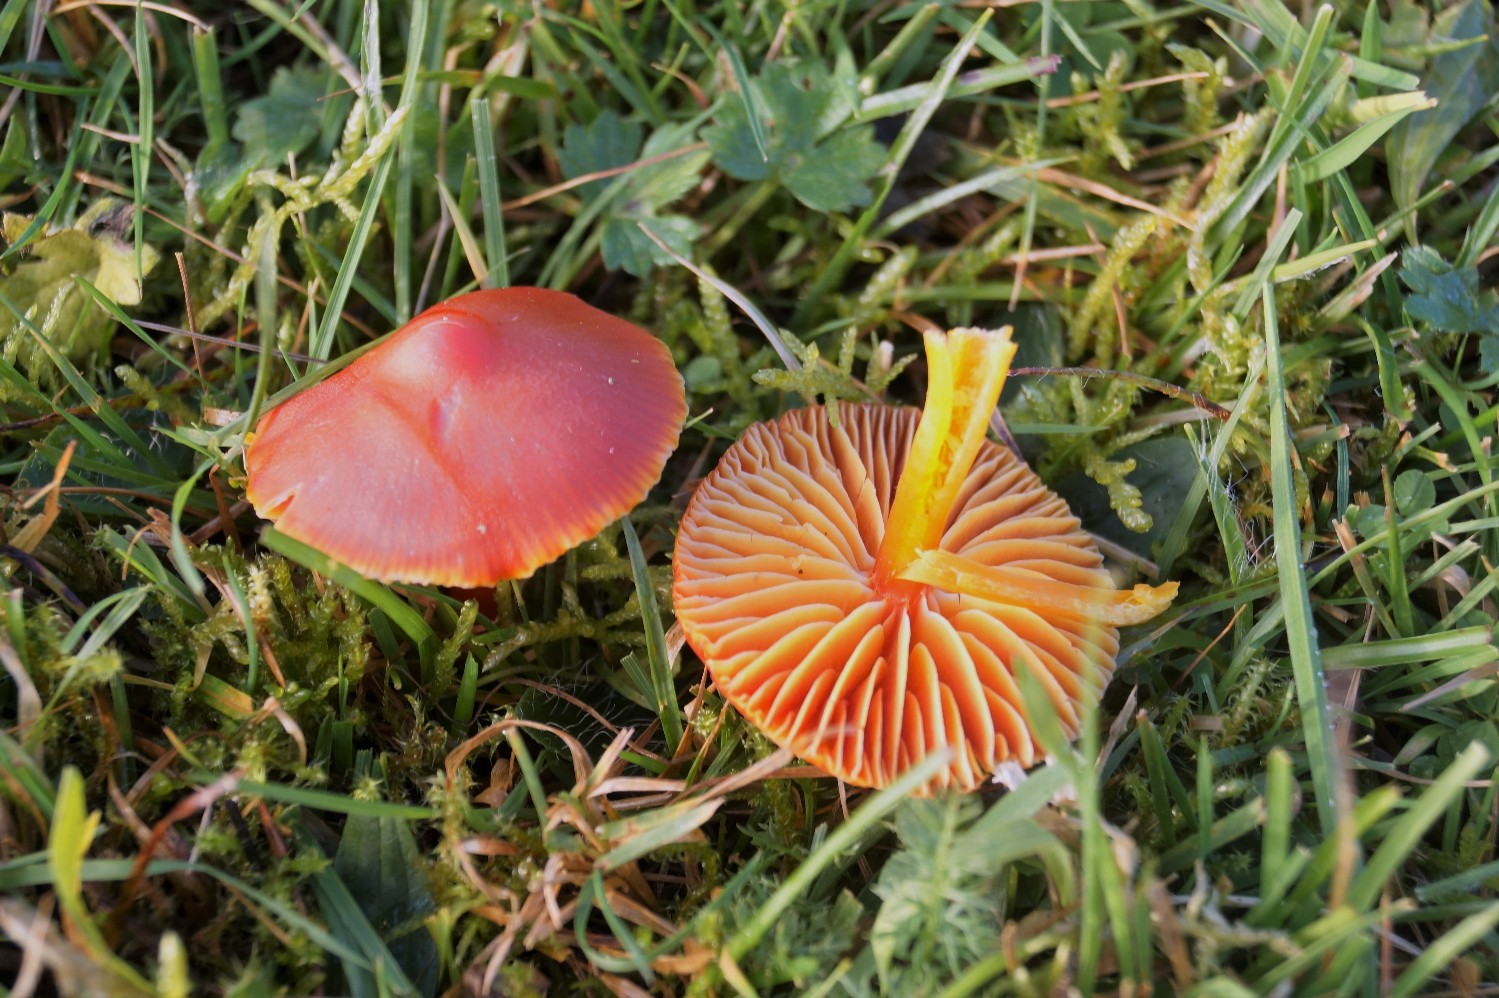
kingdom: Fungi
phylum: Basidiomycota
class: Agaricomycetes
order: Agaricales
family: Hygrophoraceae
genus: Hygrocybe
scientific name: Hygrocybe coccinea
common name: cinnober-vokshat
